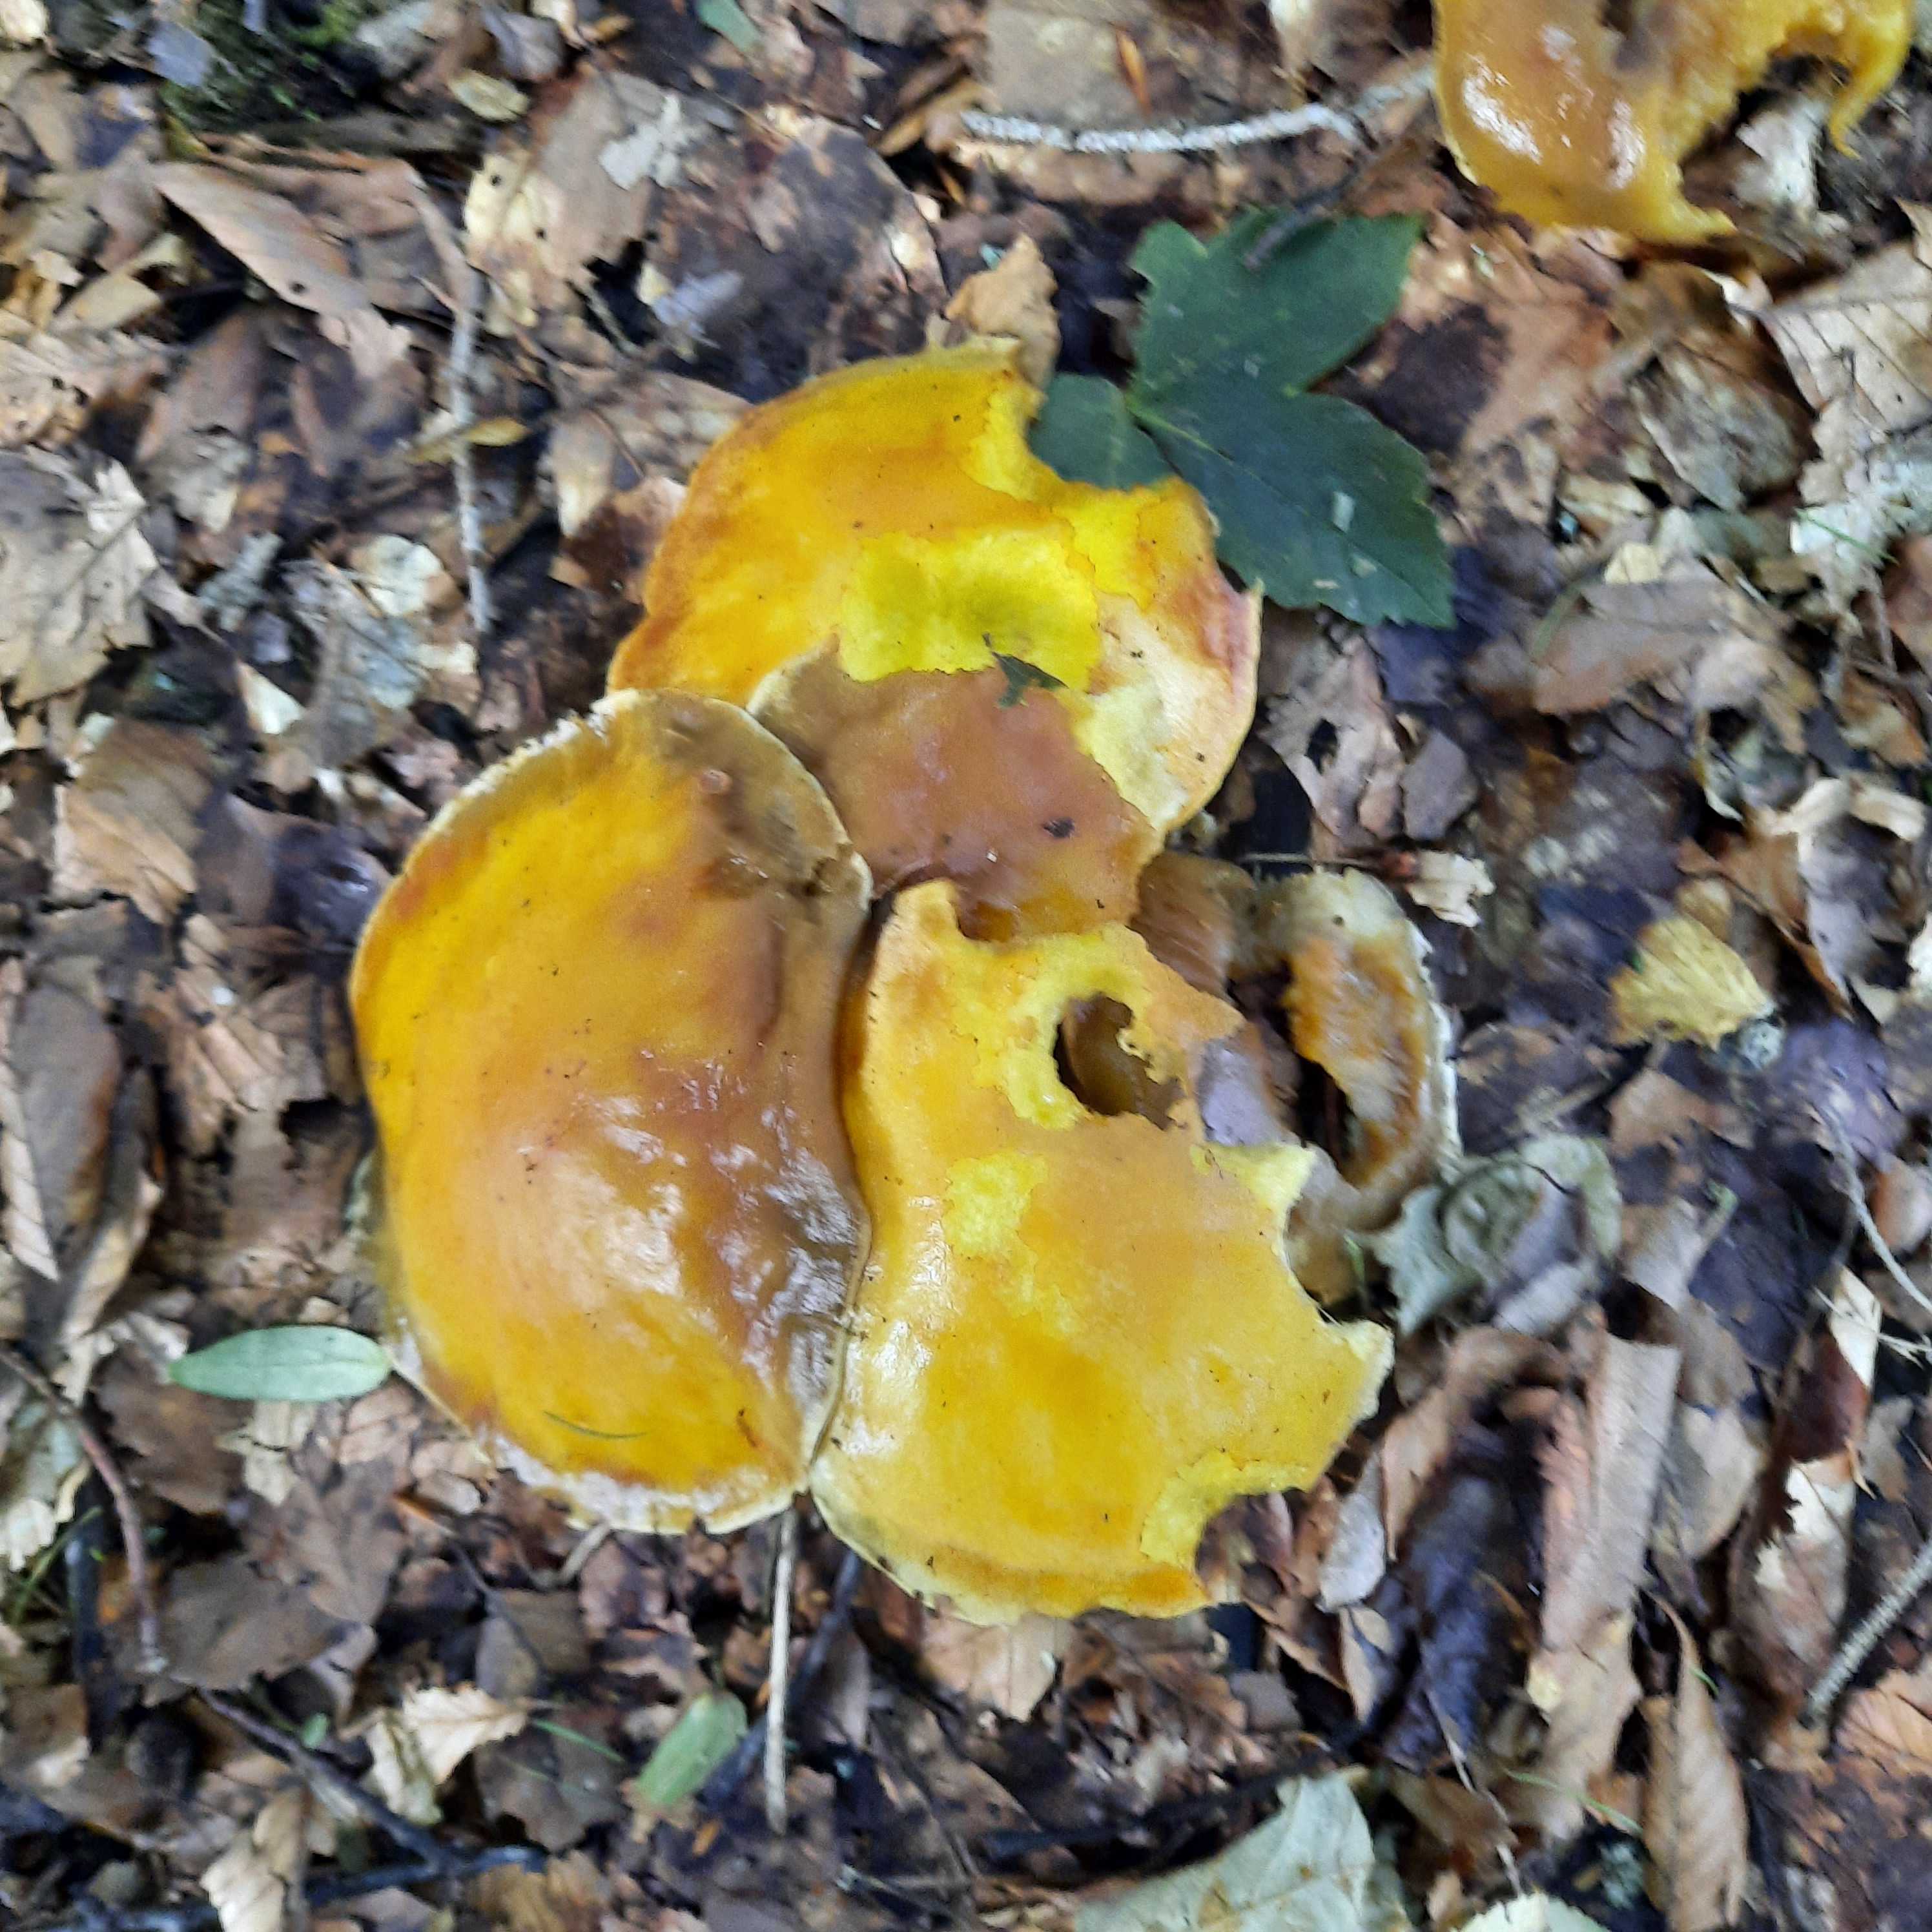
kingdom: Fungi
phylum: Basidiomycota
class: Agaricomycetes
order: Boletales
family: Suillaceae
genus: Suillus
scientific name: Suillus grevillei
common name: lærke-slimrørhat
